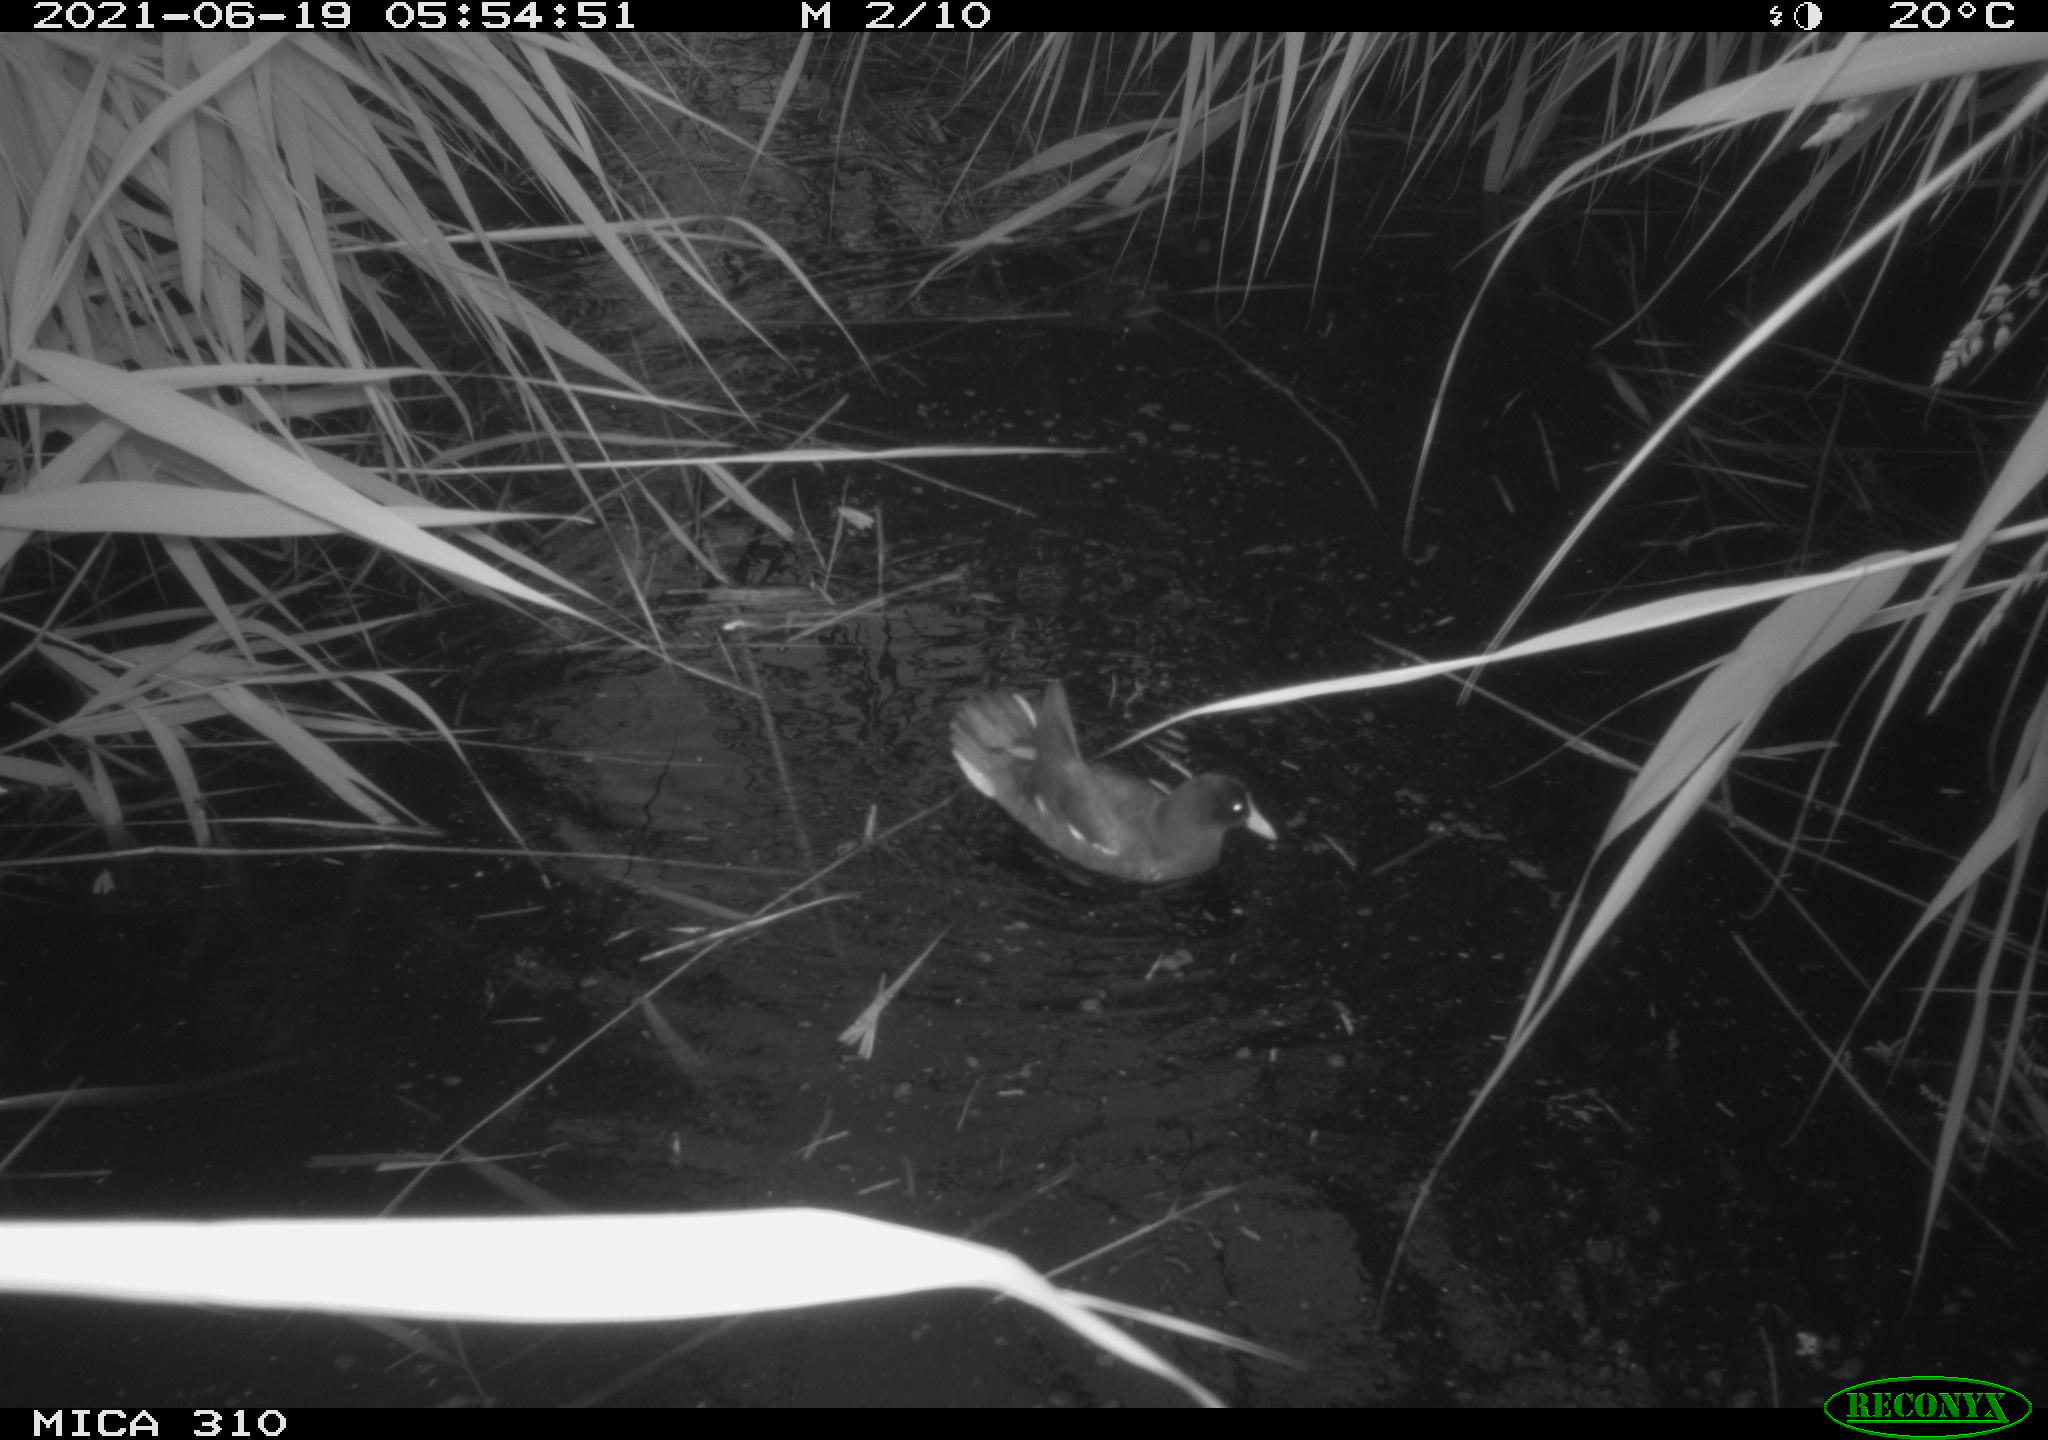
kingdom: Animalia
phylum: Chordata
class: Aves
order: Gruiformes
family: Rallidae
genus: Fulica
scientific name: Fulica atra
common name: Eurasian coot
